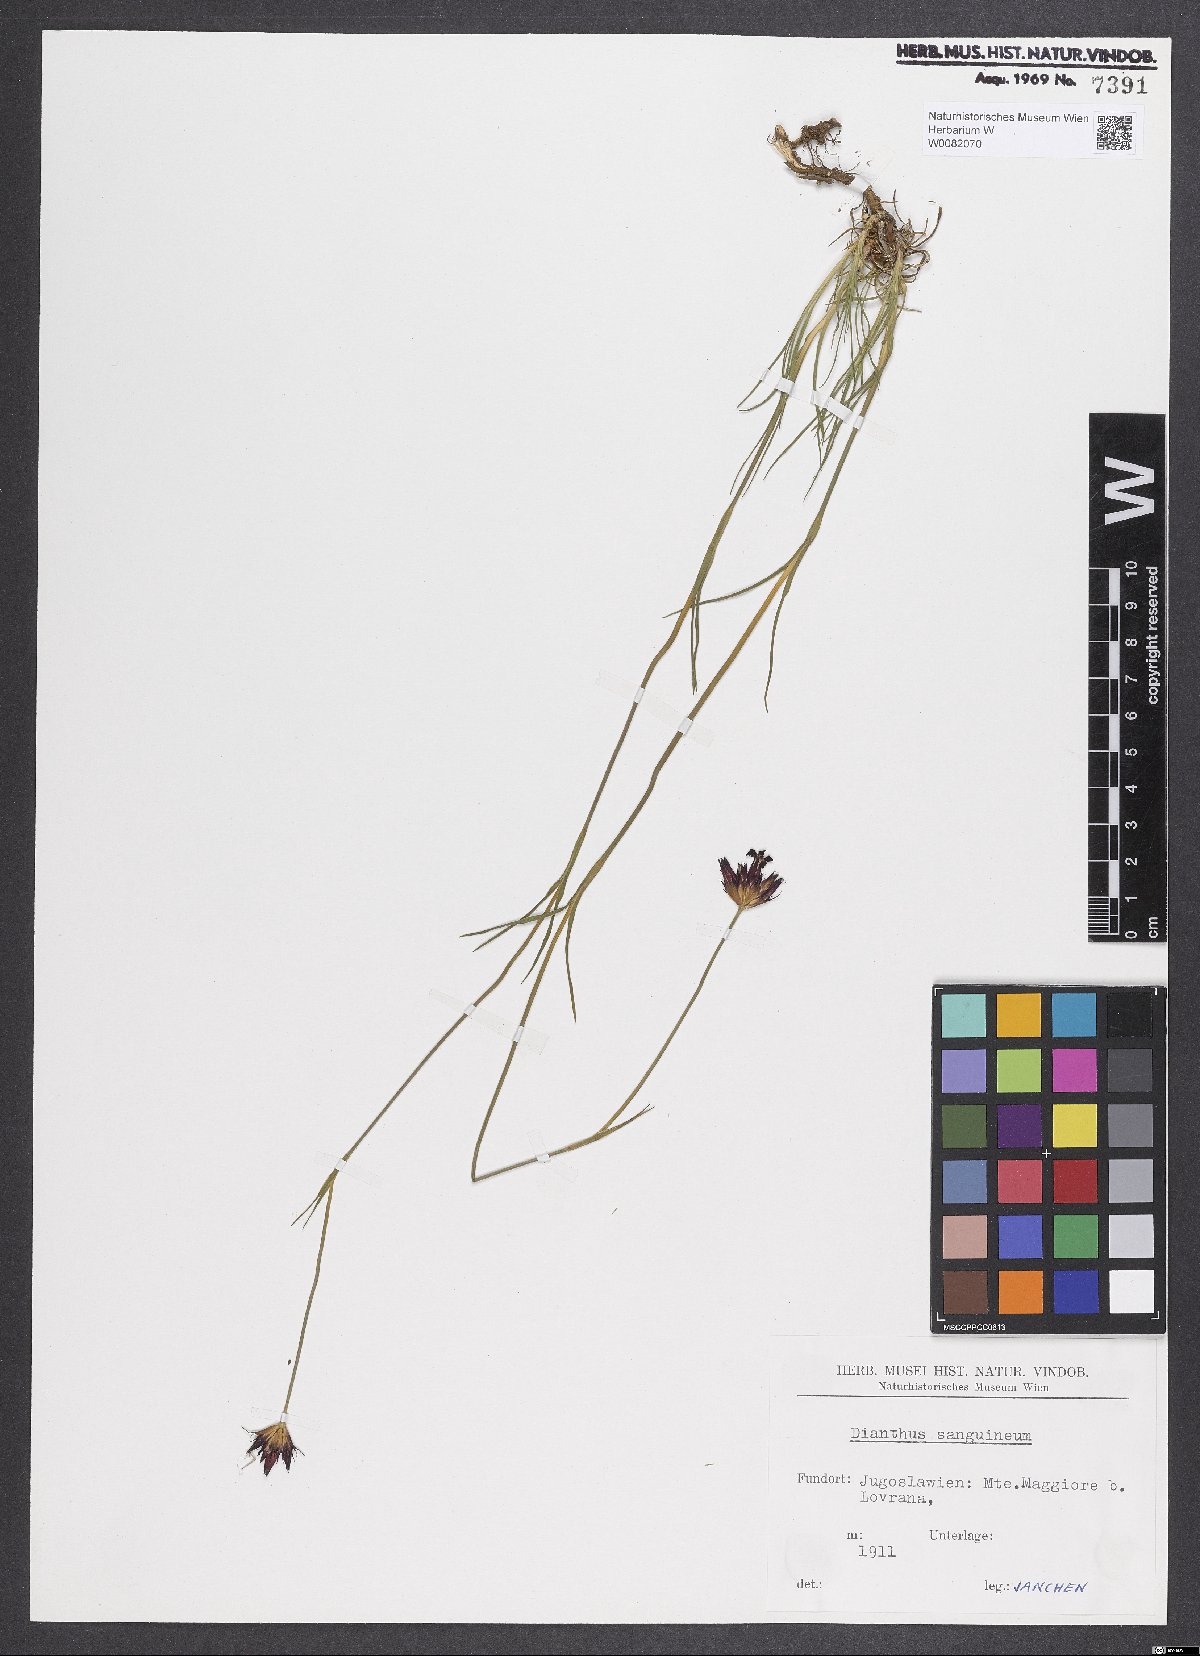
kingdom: Plantae
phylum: Tracheophyta
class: Magnoliopsida
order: Caryophyllales
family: Caryophyllaceae
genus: Dianthus
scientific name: Dianthus carthusianorum
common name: Carthusian pink
